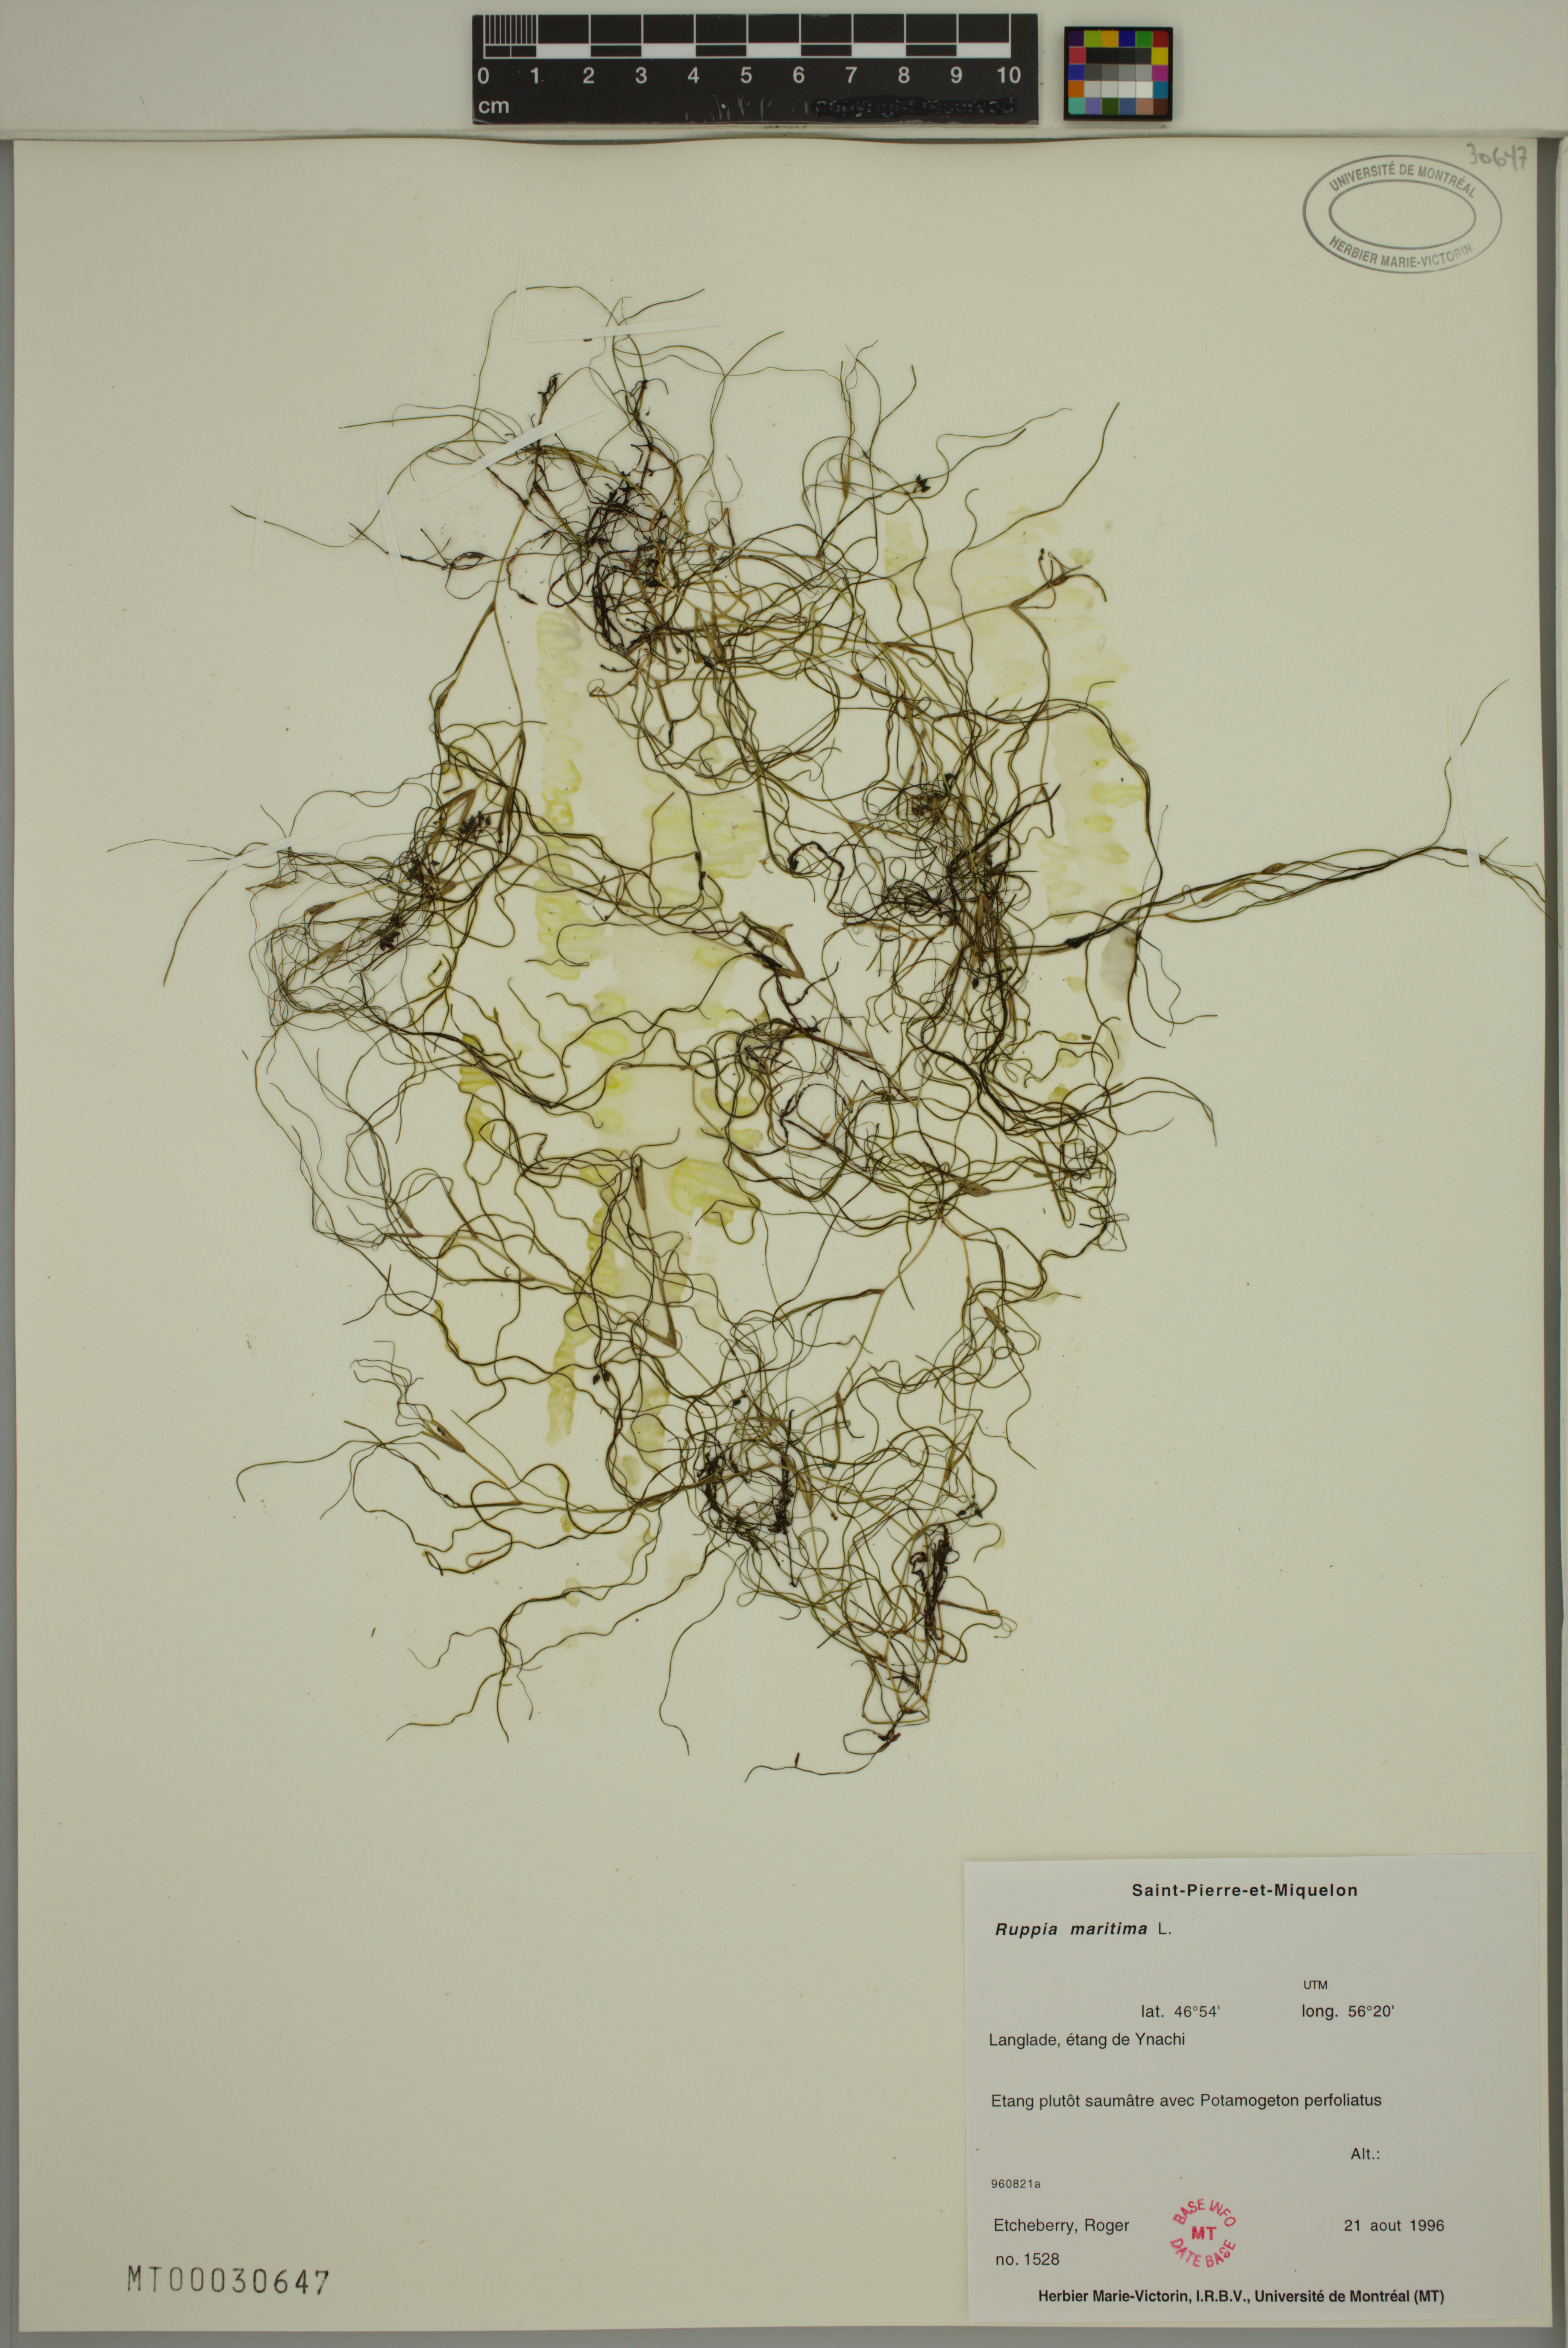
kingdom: Plantae
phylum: Tracheophyta
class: Liliopsida
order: Alismatales
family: Ruppiaceae
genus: Ruppia
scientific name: Ruppia maritima
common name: Beaked tasselweed
